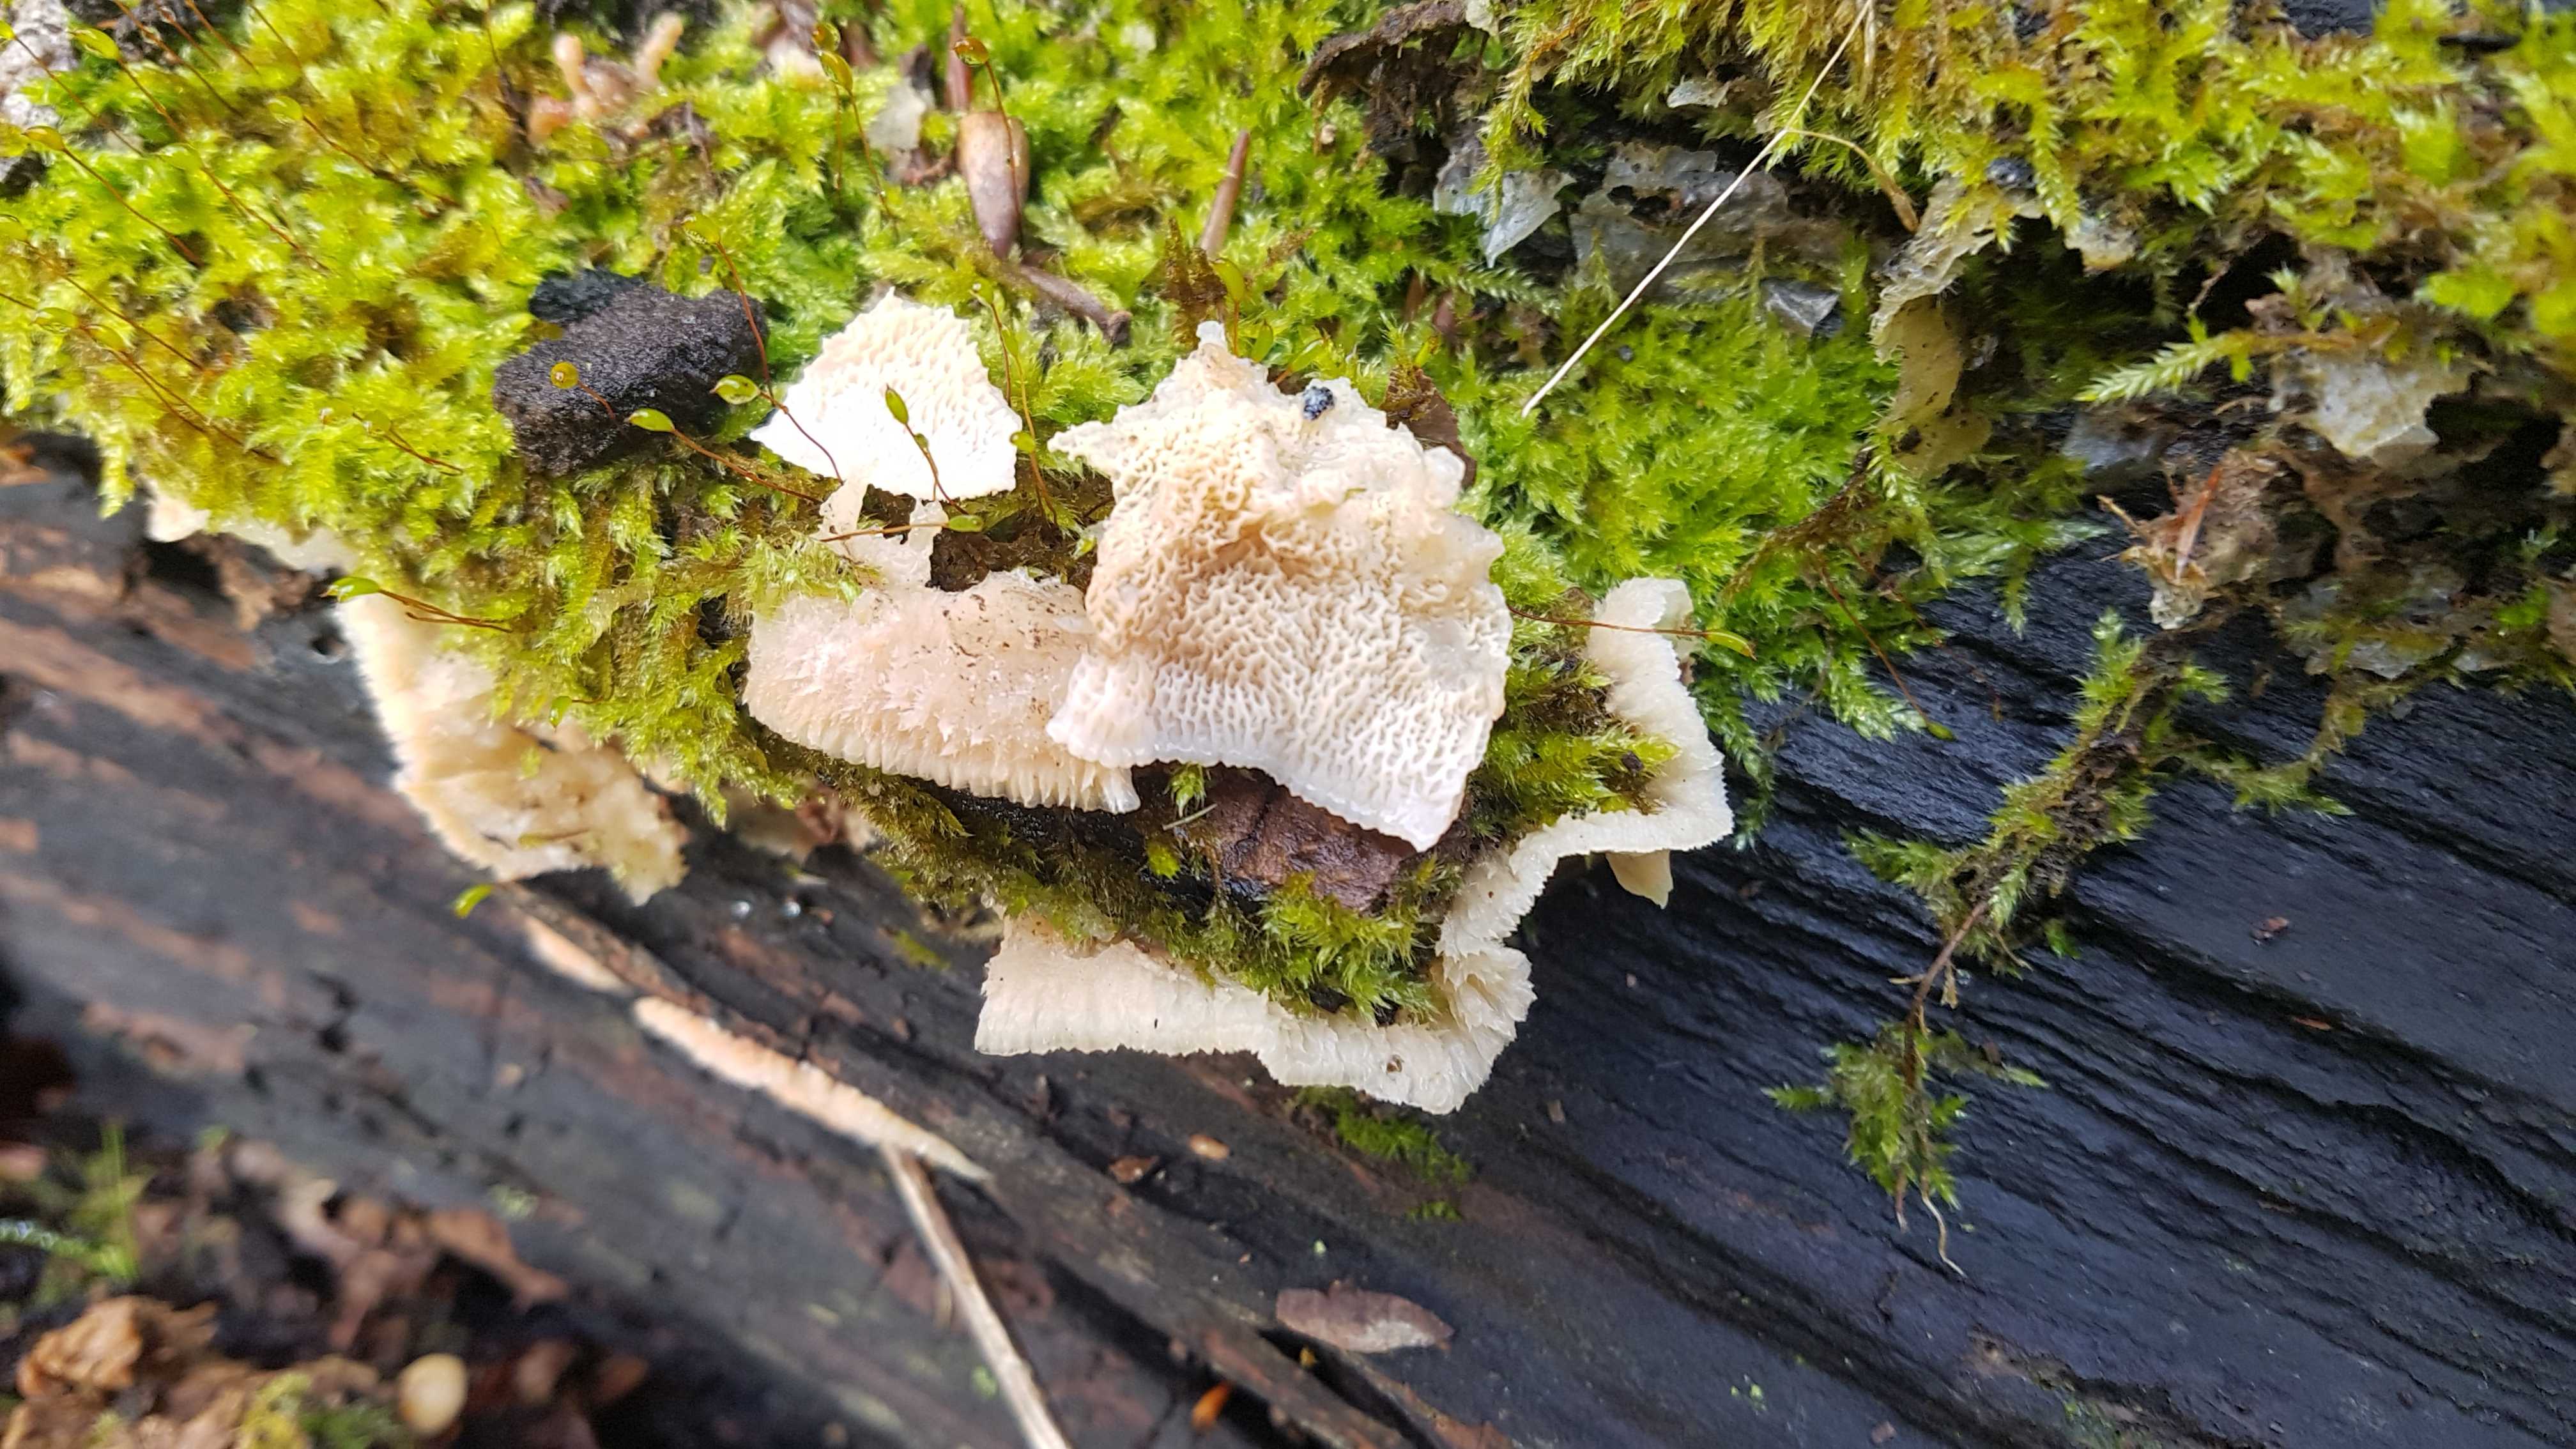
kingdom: Fungi
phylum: Basidiomycota
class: Agaricomycetes
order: Polyporales
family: Meruliaceae
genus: Phlebia
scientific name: Phlebia tremellosa
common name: bævrende åresvamp
